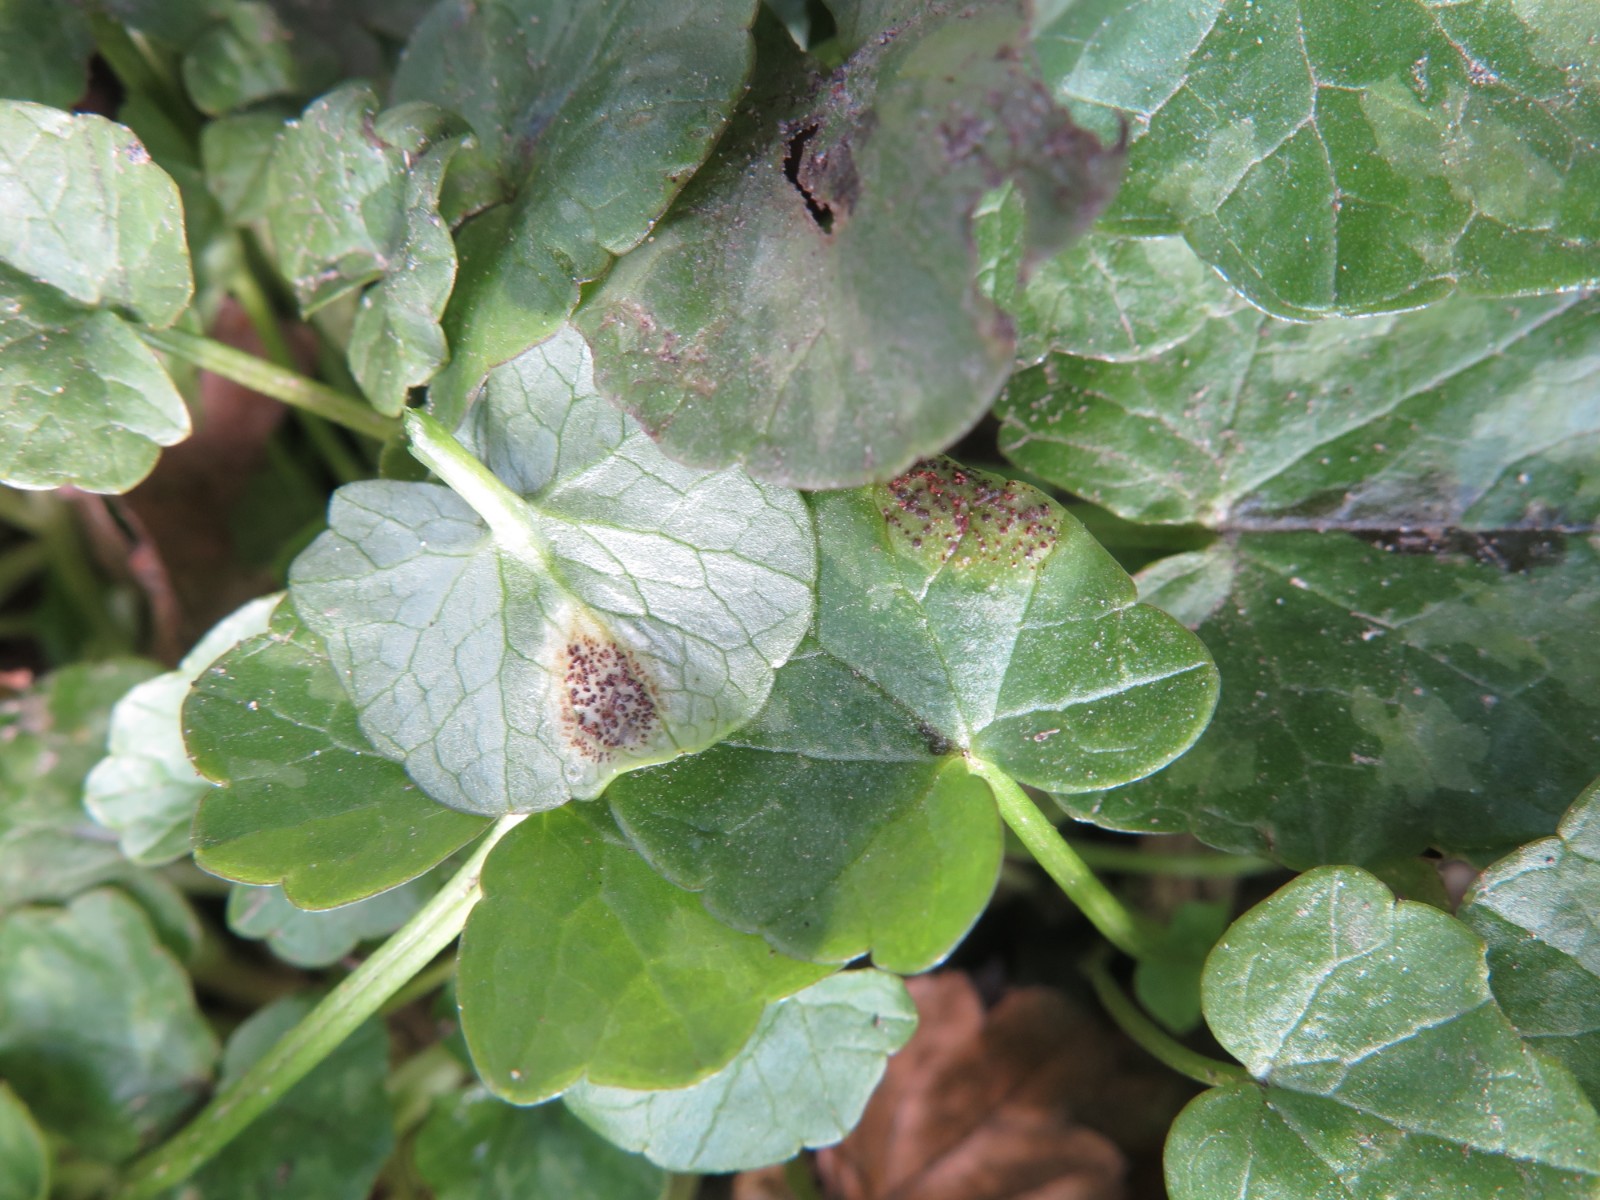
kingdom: Fungi
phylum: Basidiomycota
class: Pucciniomycetes
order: Pucciniales
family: Pucciniaceae
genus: Uromyces
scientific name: Uromyces ficariae
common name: vorterod-encellerust
